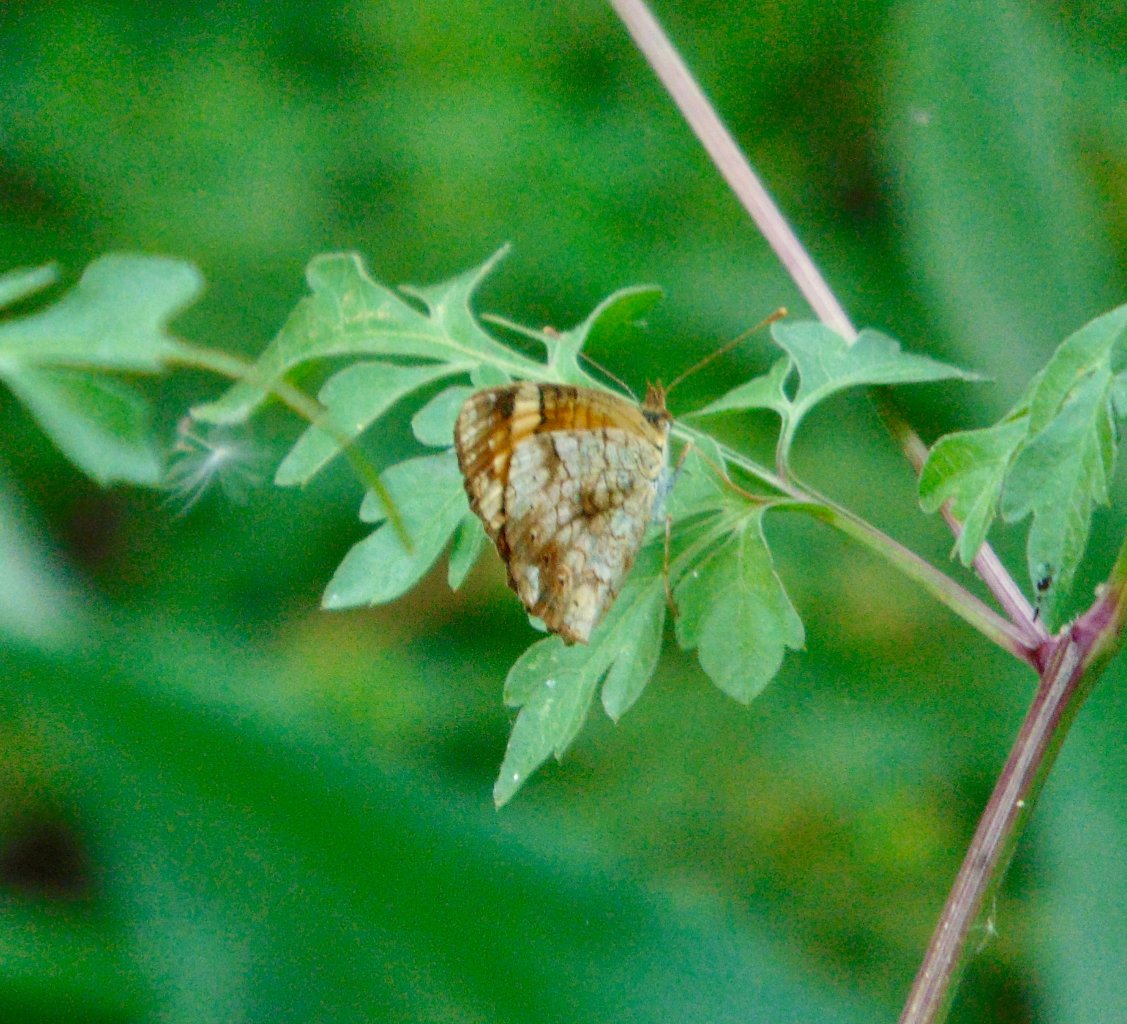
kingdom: Animalia
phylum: Arthropoda
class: Insecta
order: Lepidoptera
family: Nymphalidae
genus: Phyciodes
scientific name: Phyciodes tharos
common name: Pearl Crescent
